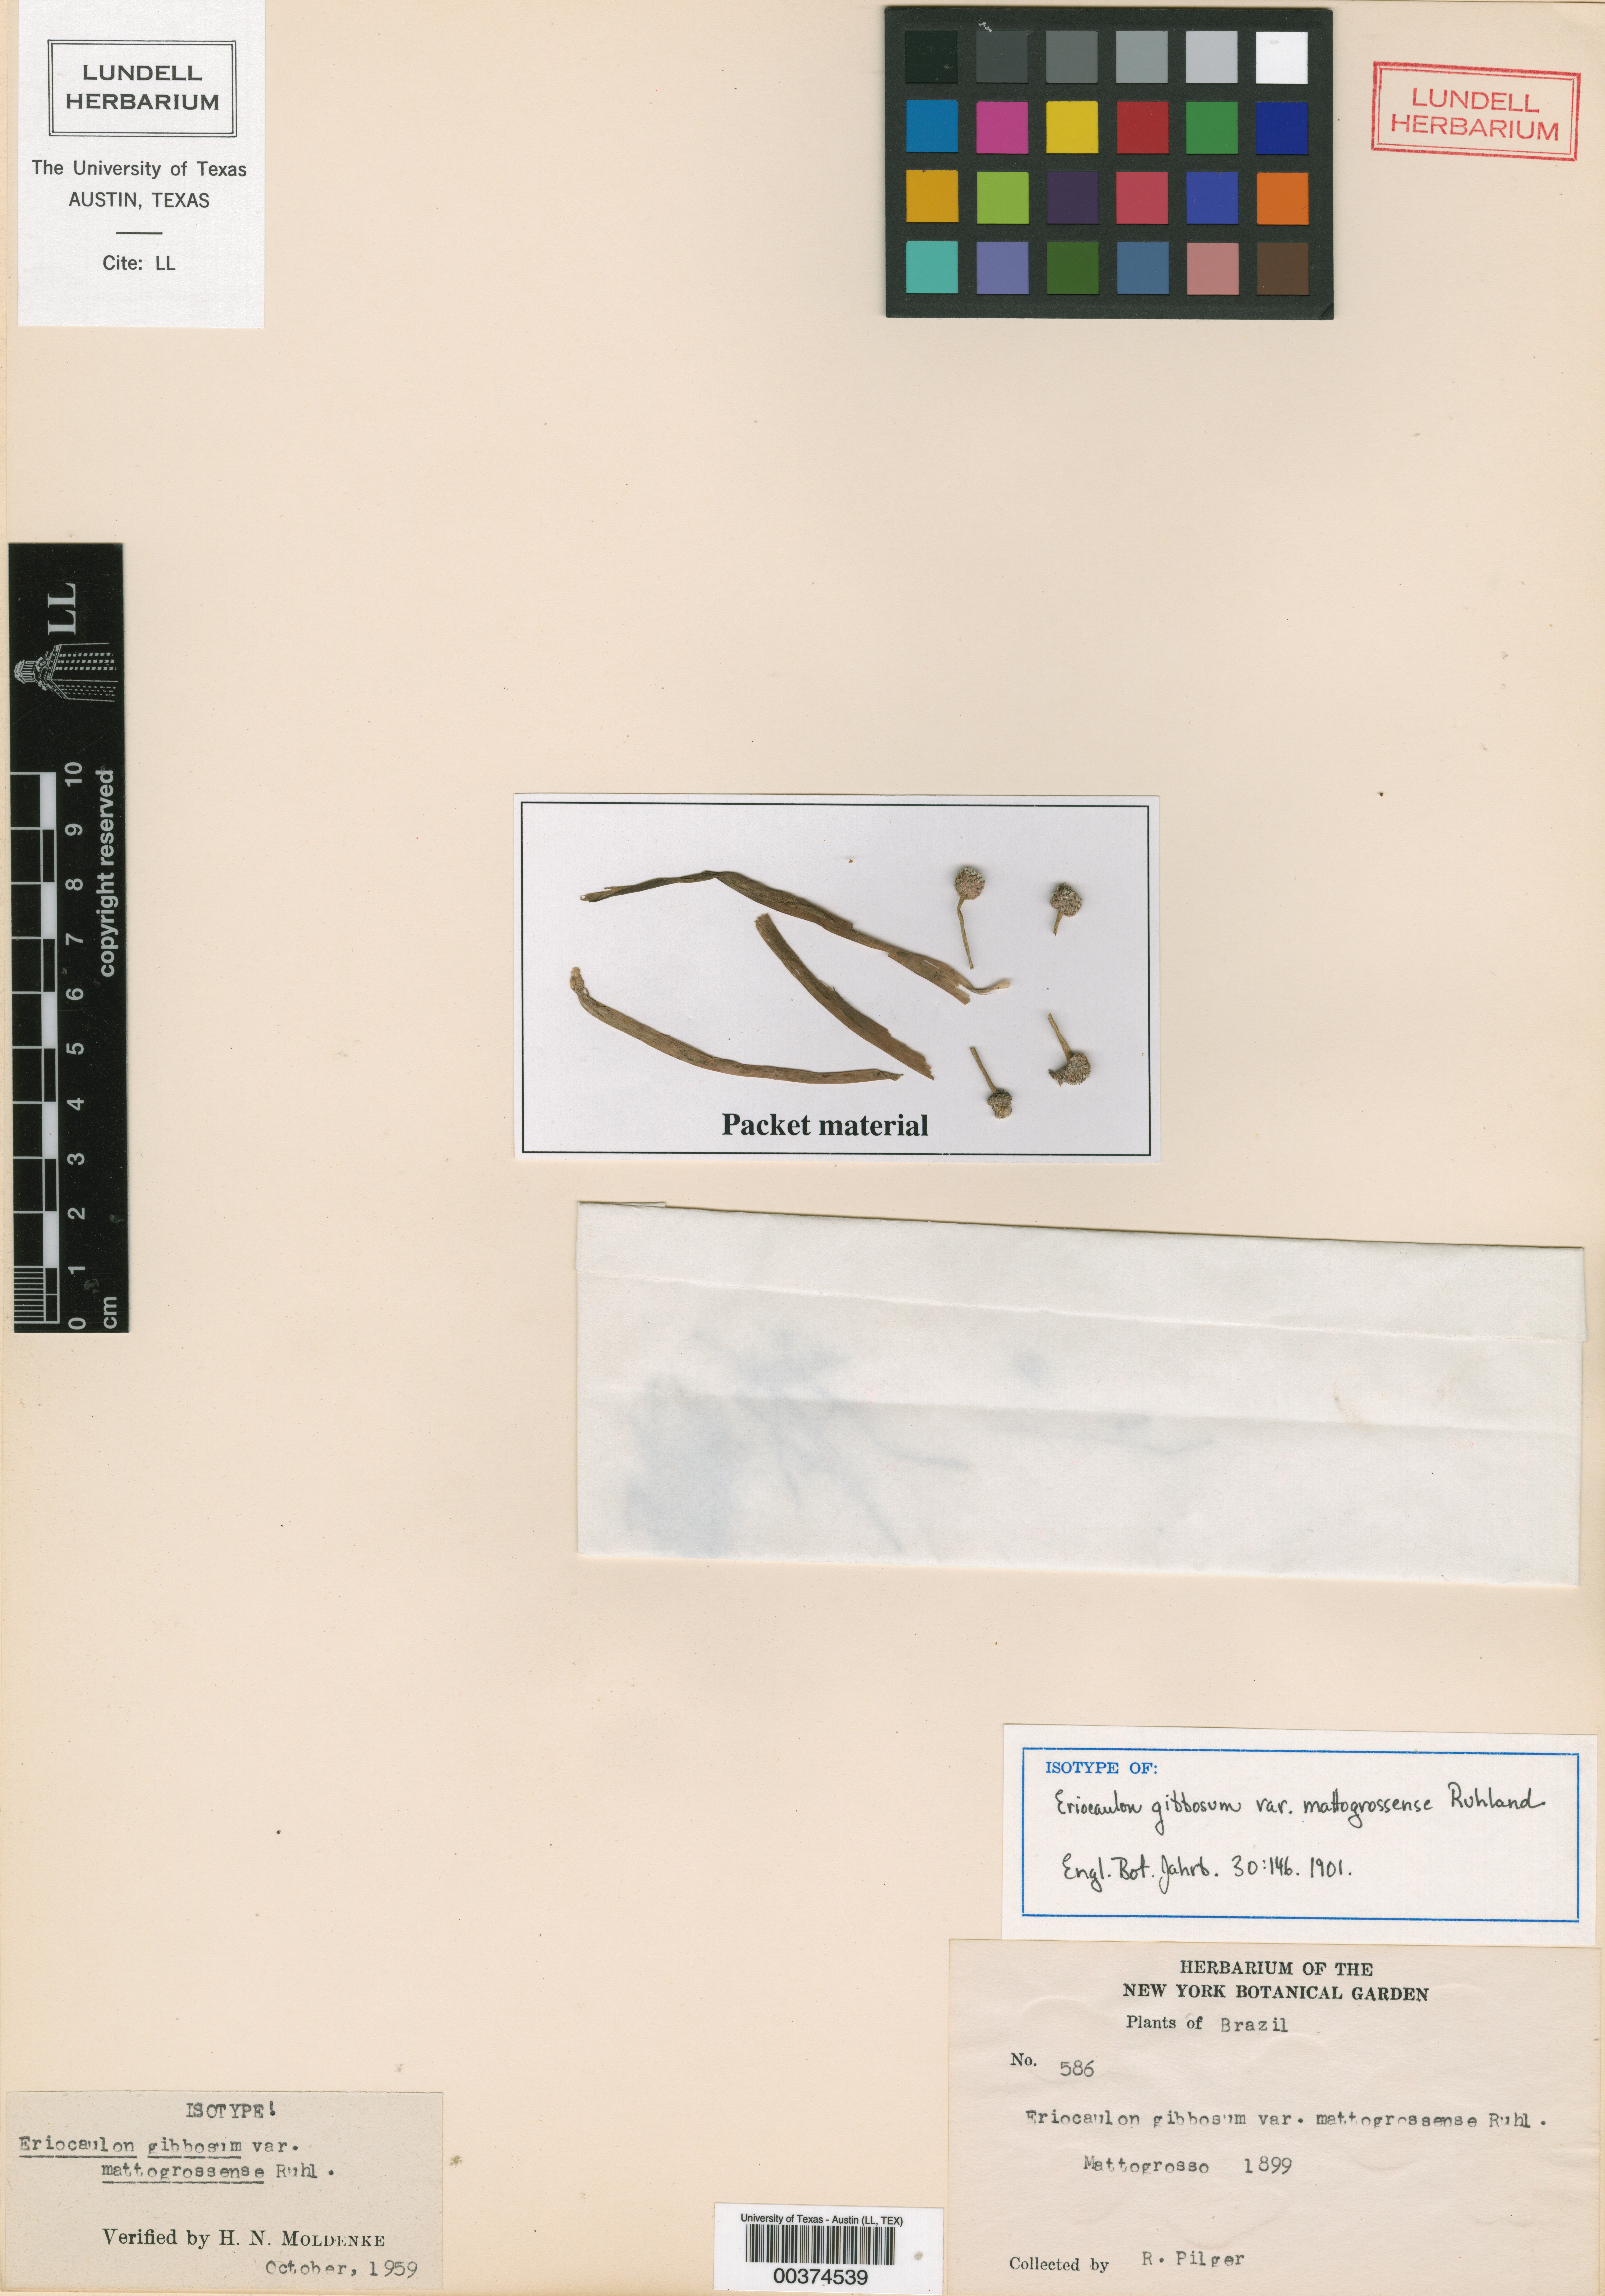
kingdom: Plantae
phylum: Tracheophyta
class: Magnoliopsida
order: Malpighiales
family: Hypericaceae
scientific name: Hypericaceae
